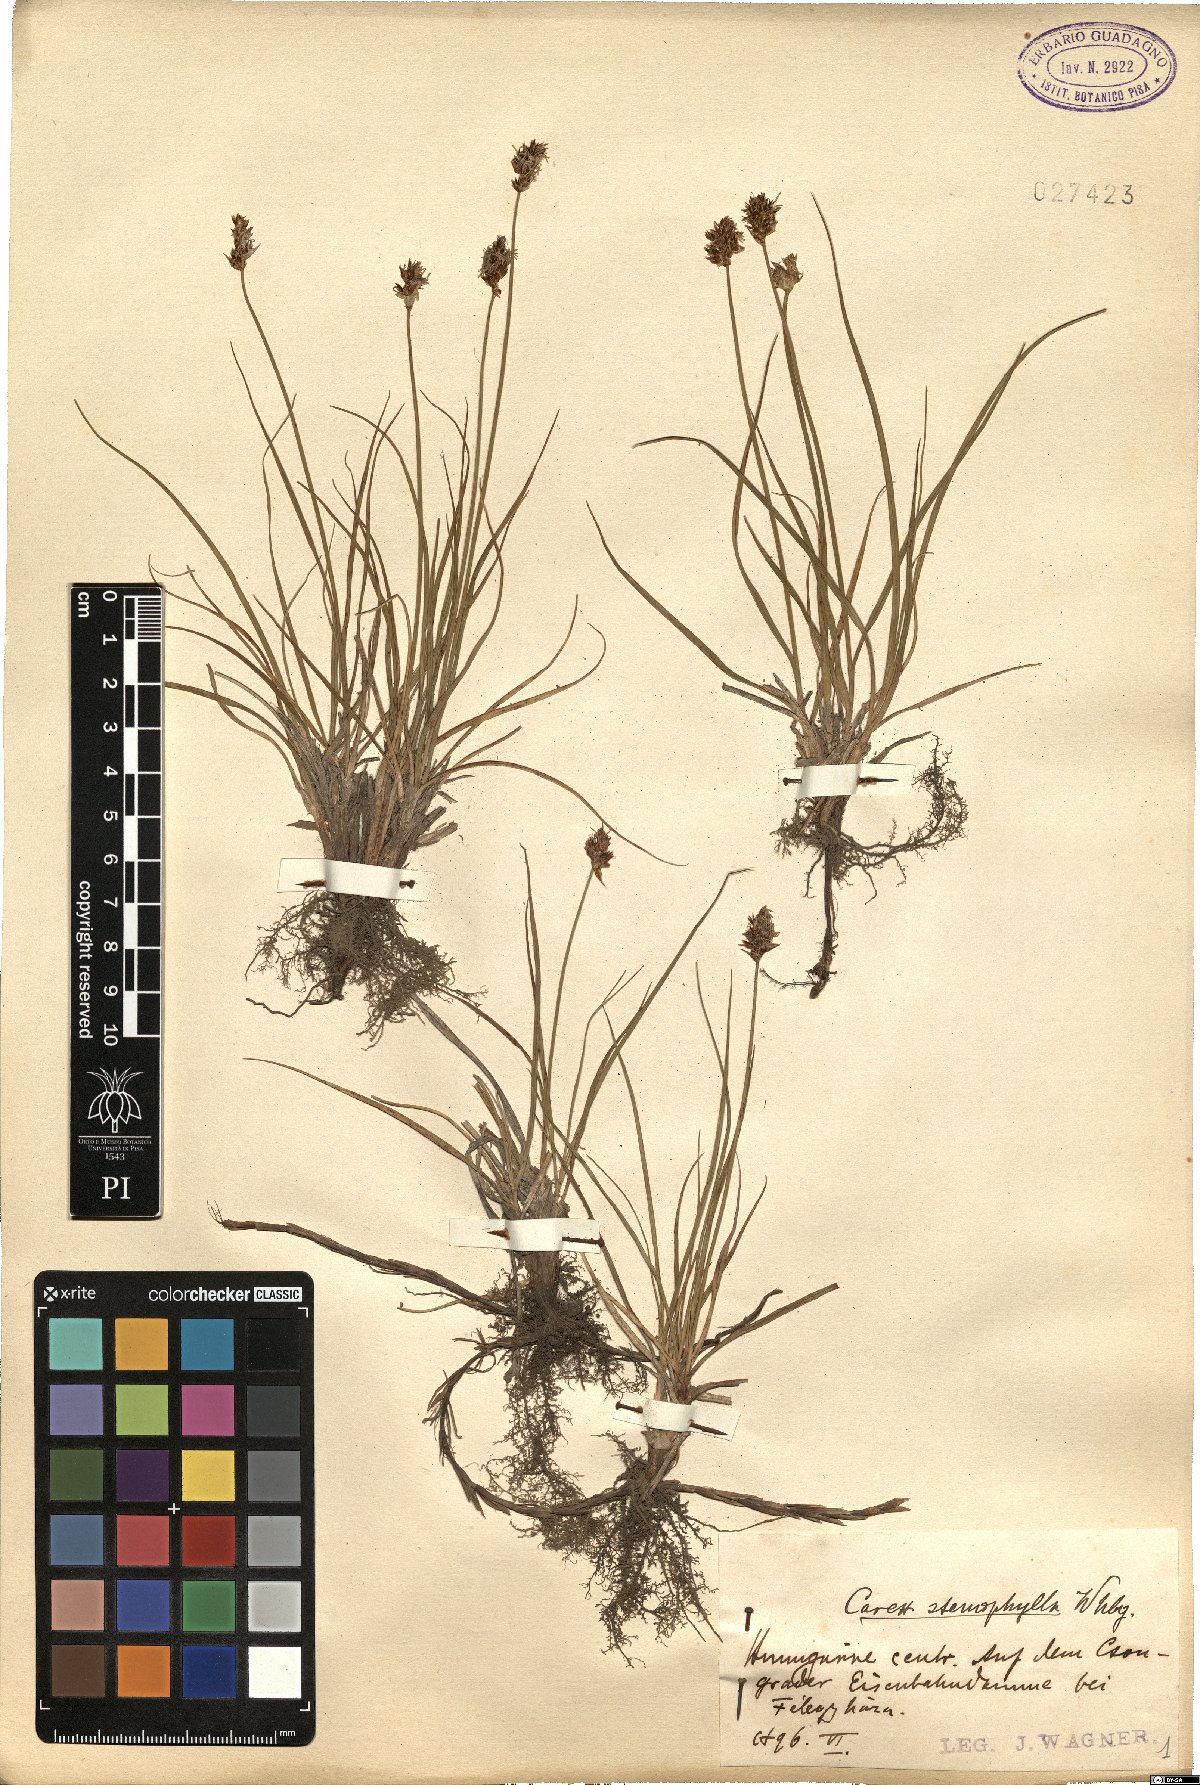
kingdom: Plantae
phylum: Tracheophyta
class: Liliopsida
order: Poales
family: Cyperaceae
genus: Carex
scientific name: Carex stenophylla
